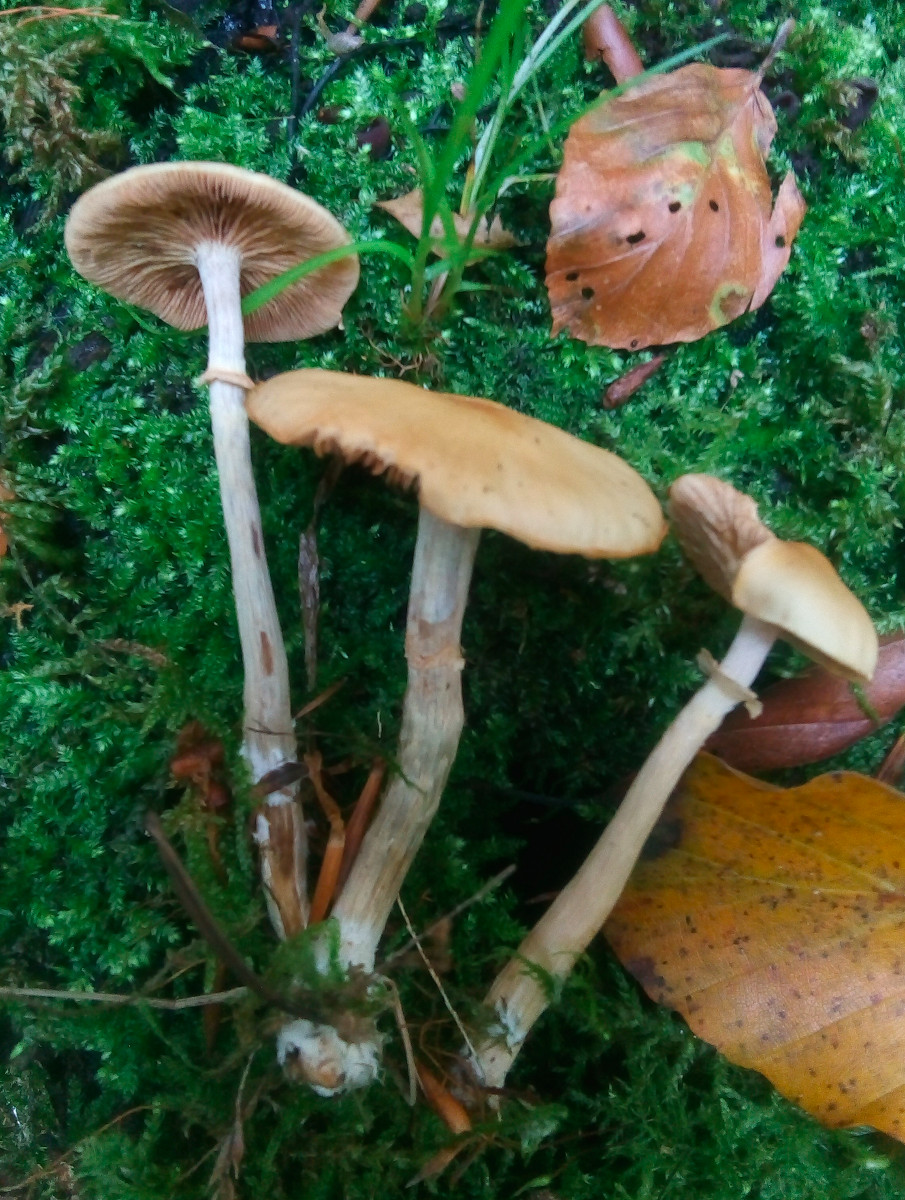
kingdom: Fungi
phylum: Basidiomycota
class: Agaricomycetes
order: Agaricales
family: Hymenogastraceae
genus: Galerina
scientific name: Galerina marginata
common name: randbæltet hjelmhat
